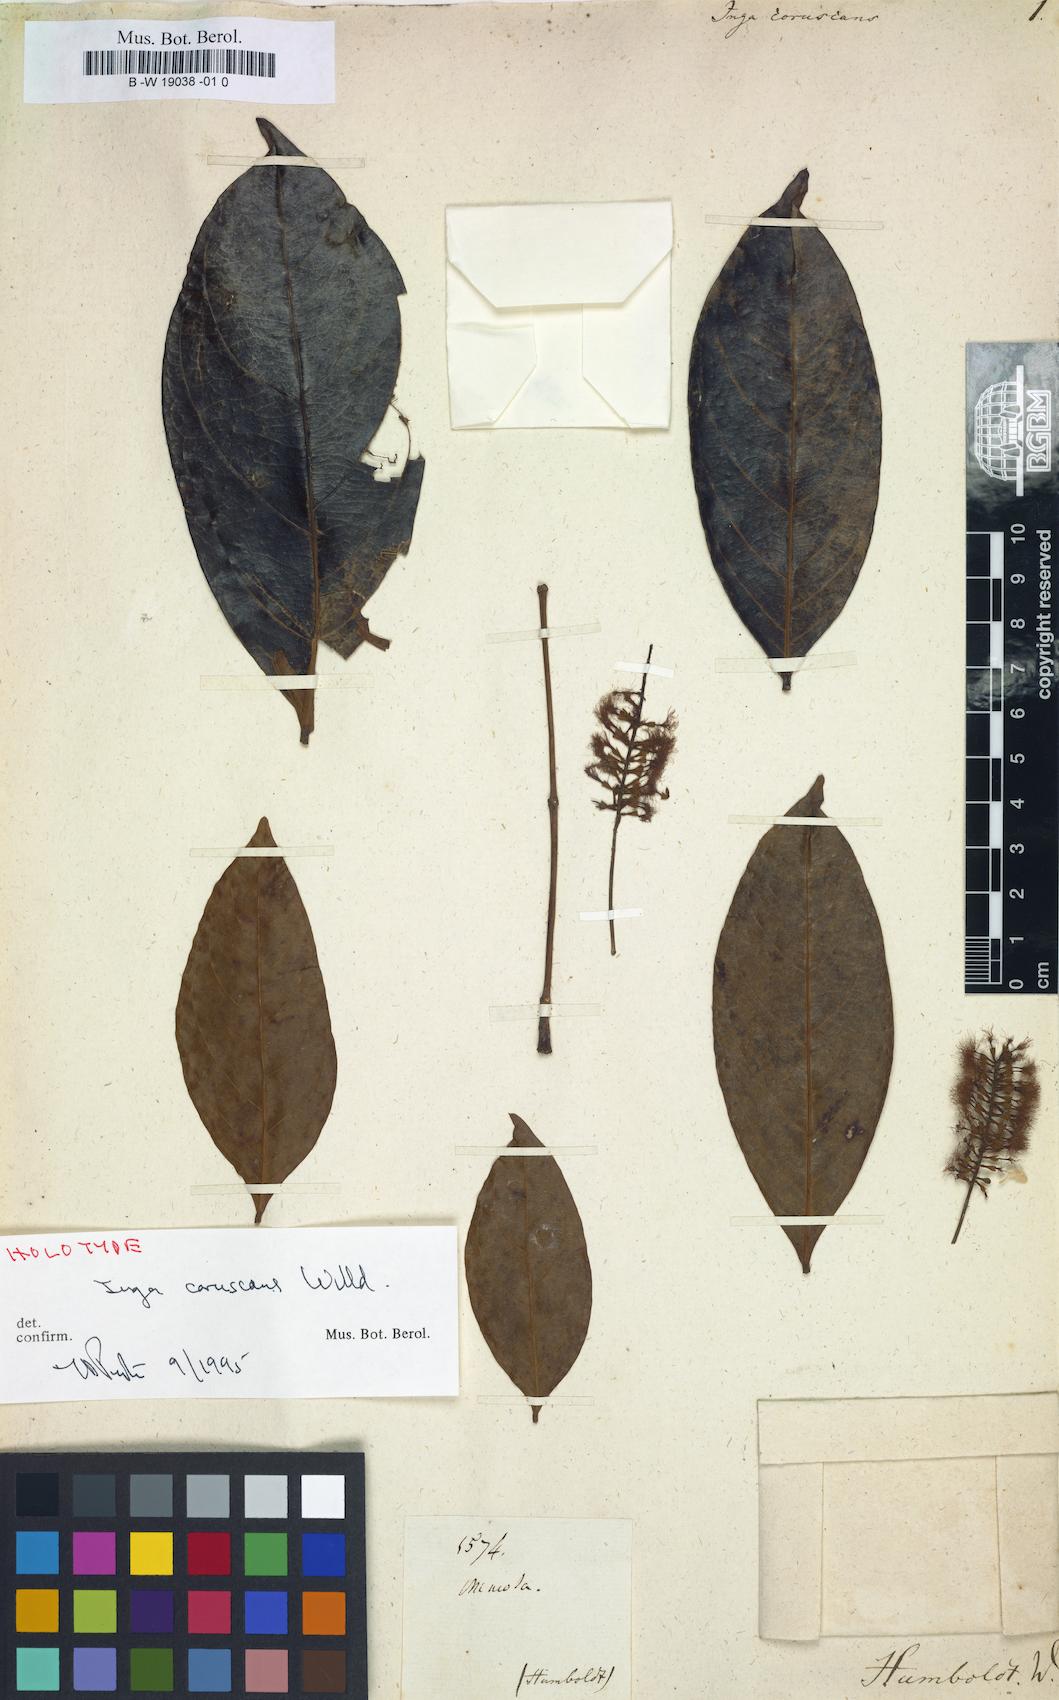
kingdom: Plantae
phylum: Tracheophyta
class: Magnoliopsida
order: Fabales
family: Fabaceae
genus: Inga
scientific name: Inga coruscans
